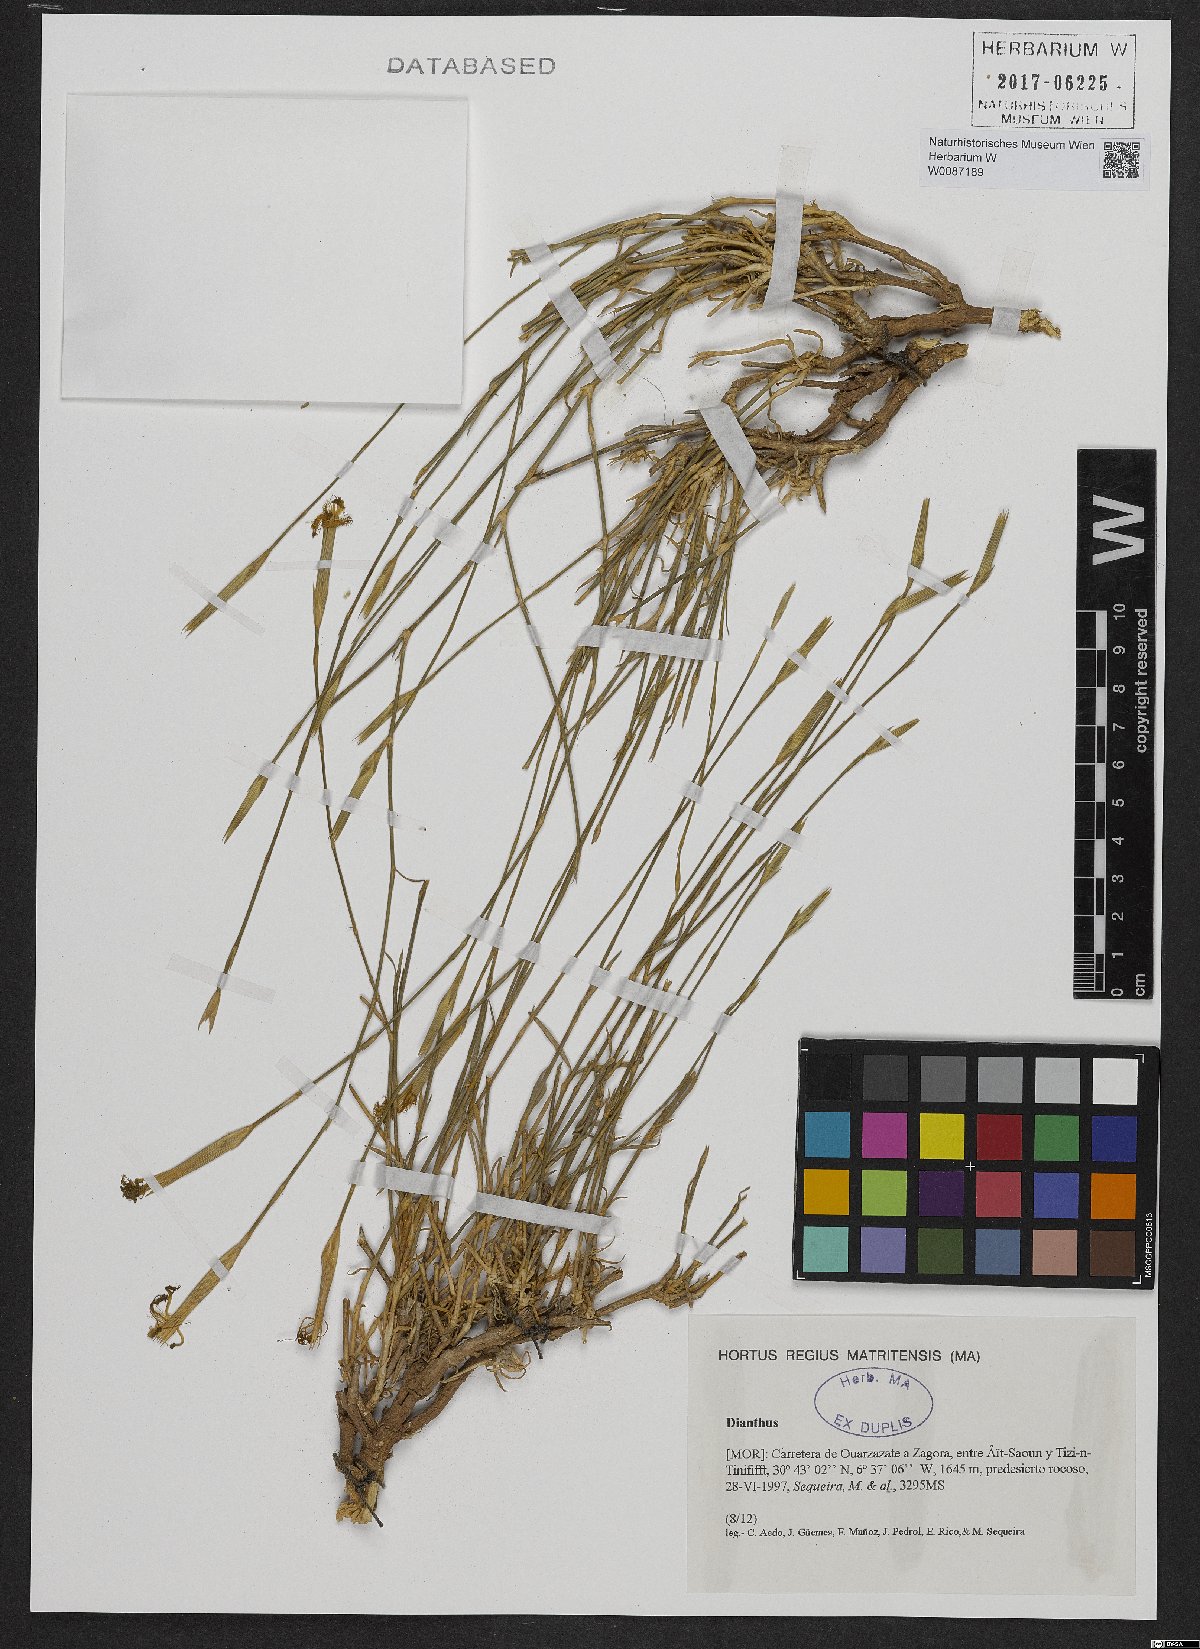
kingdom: Plantae
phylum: Tracheophyta
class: Magnoliopsida
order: Caryophyllales
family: Caryophyllaceae
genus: Dianthus
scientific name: Dianthus
